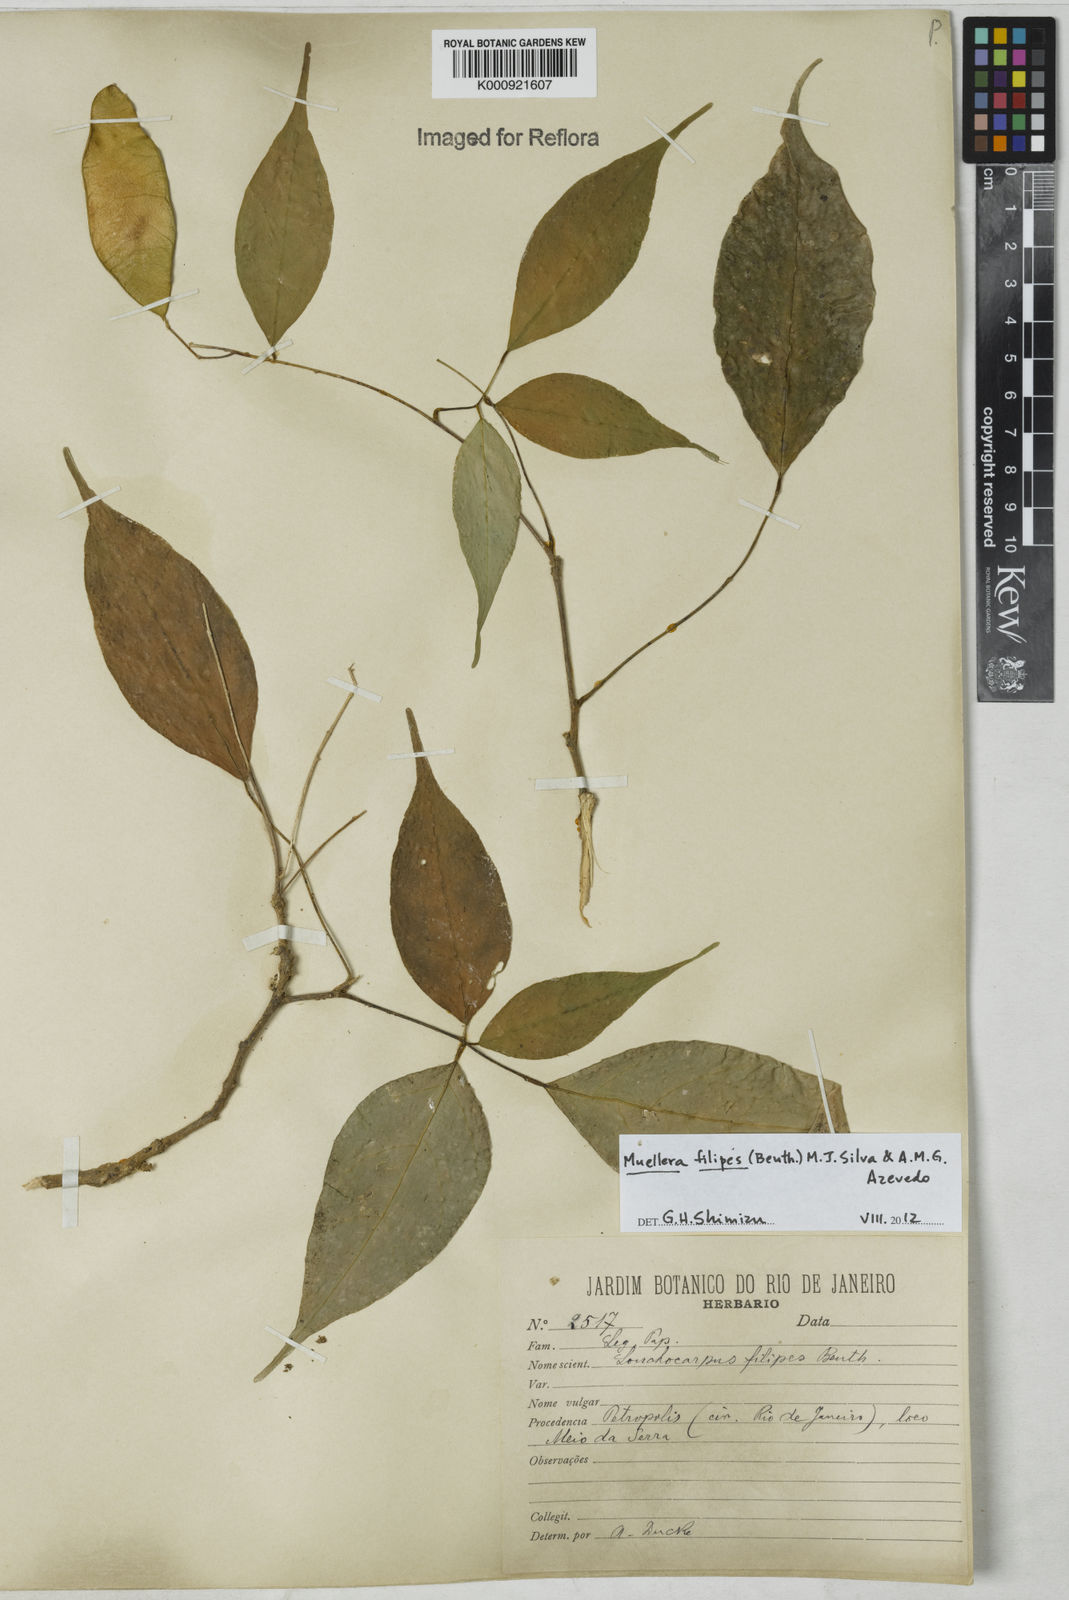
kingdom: Plantae
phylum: Tracheophyta
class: Magnoliopsida
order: Fabales
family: Fabaceae
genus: Muellera
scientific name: Muellera filipes
